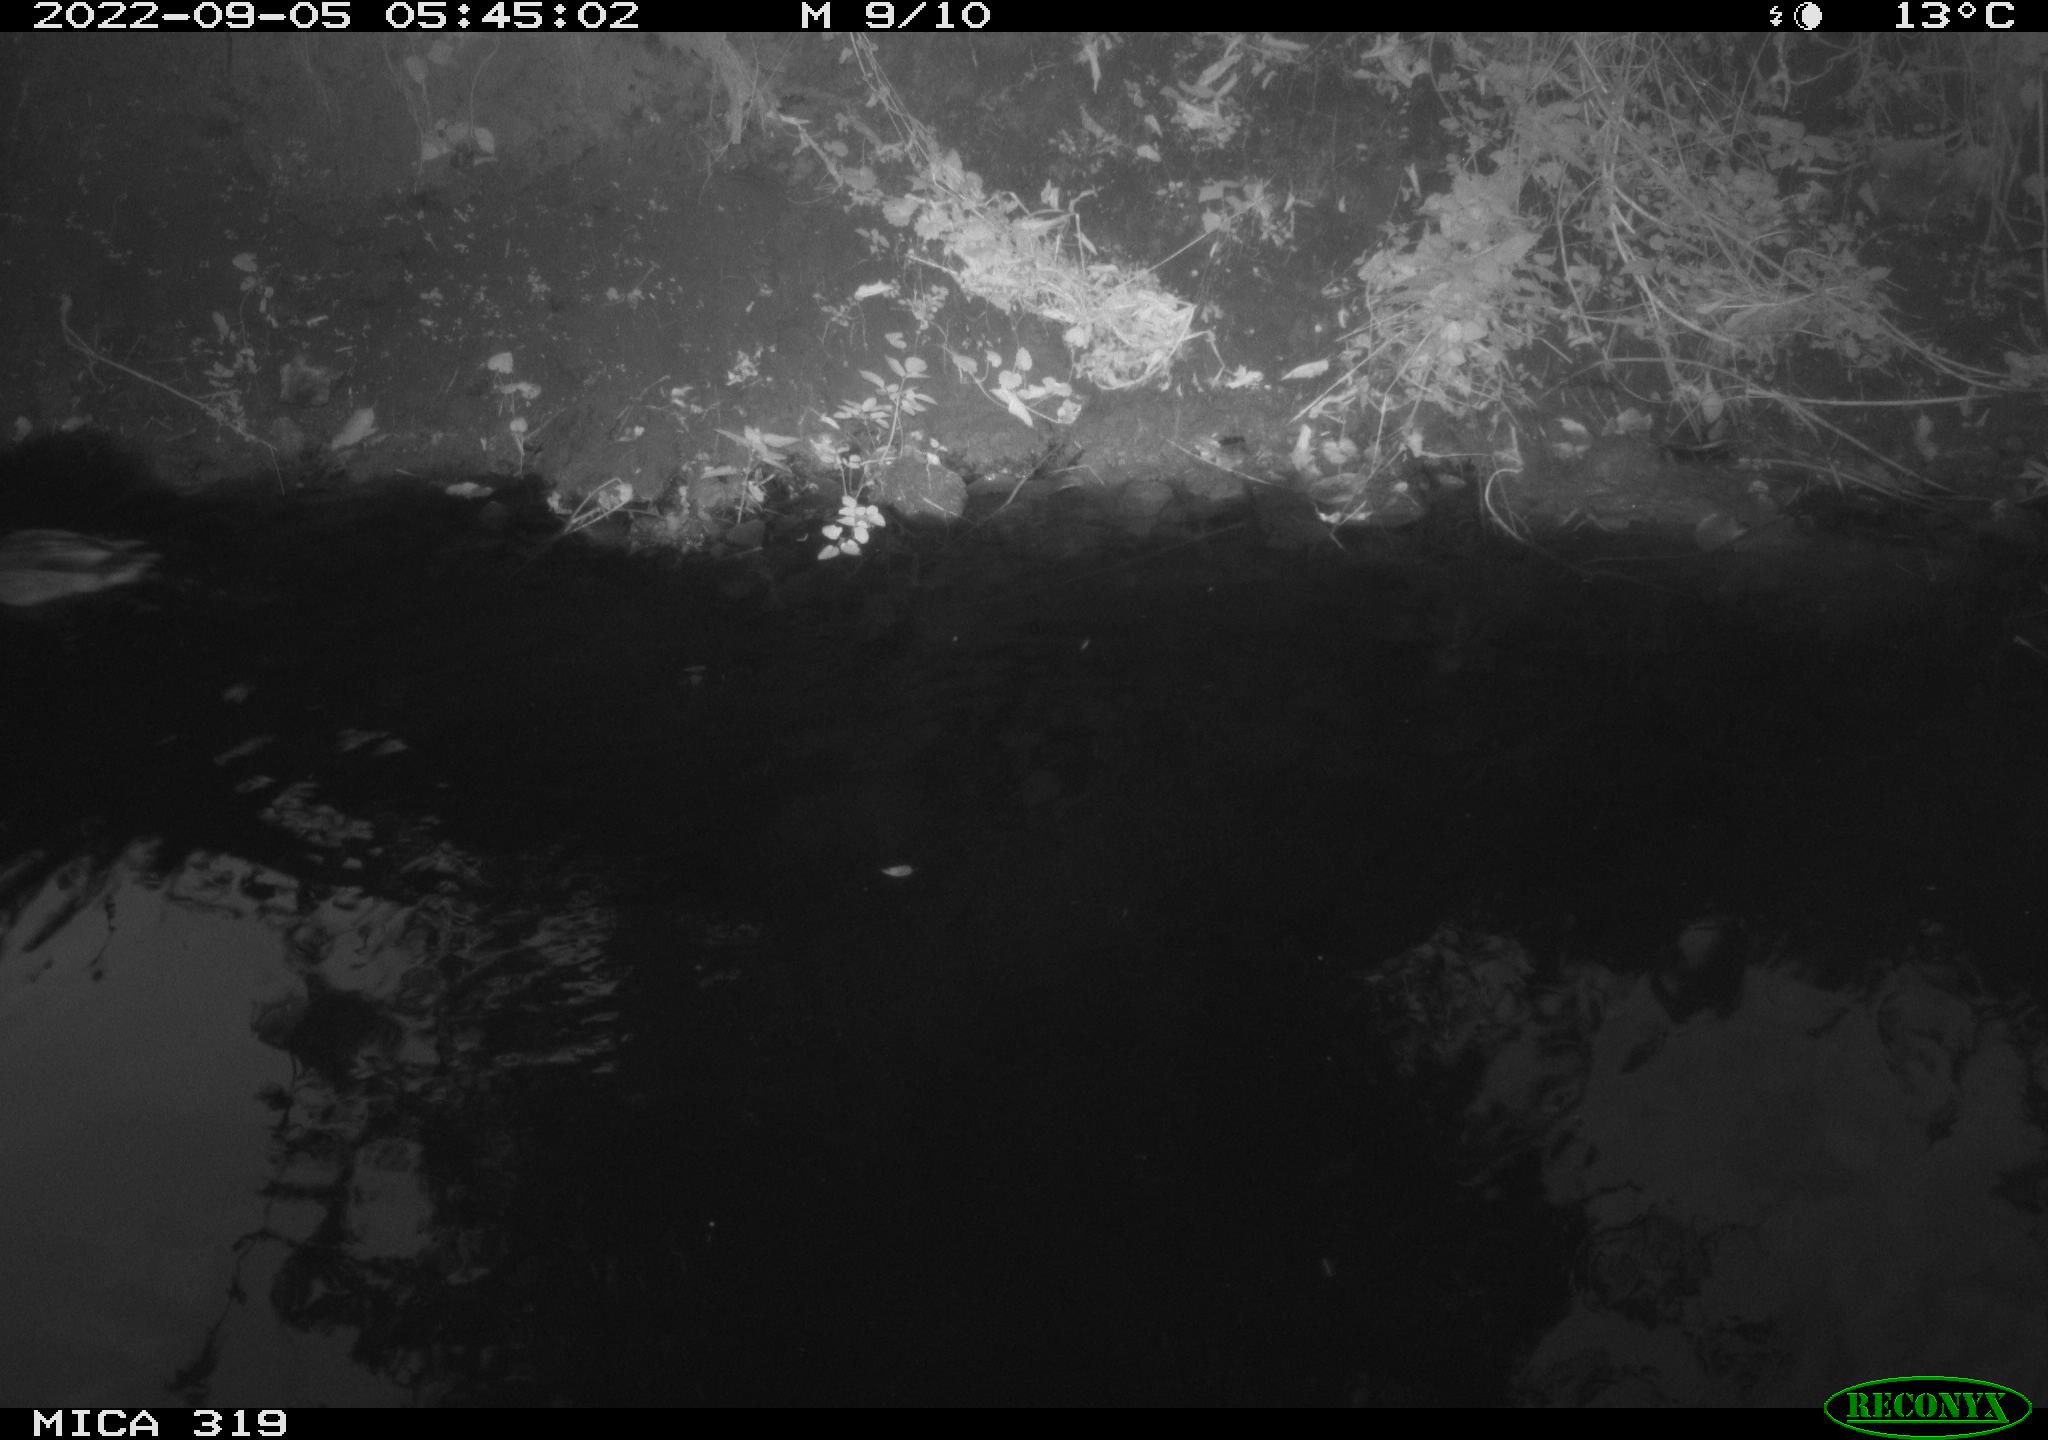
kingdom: Animalia
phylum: Chordata
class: Aves
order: Anseriformes
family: Anatidae
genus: Anas
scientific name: Anas
